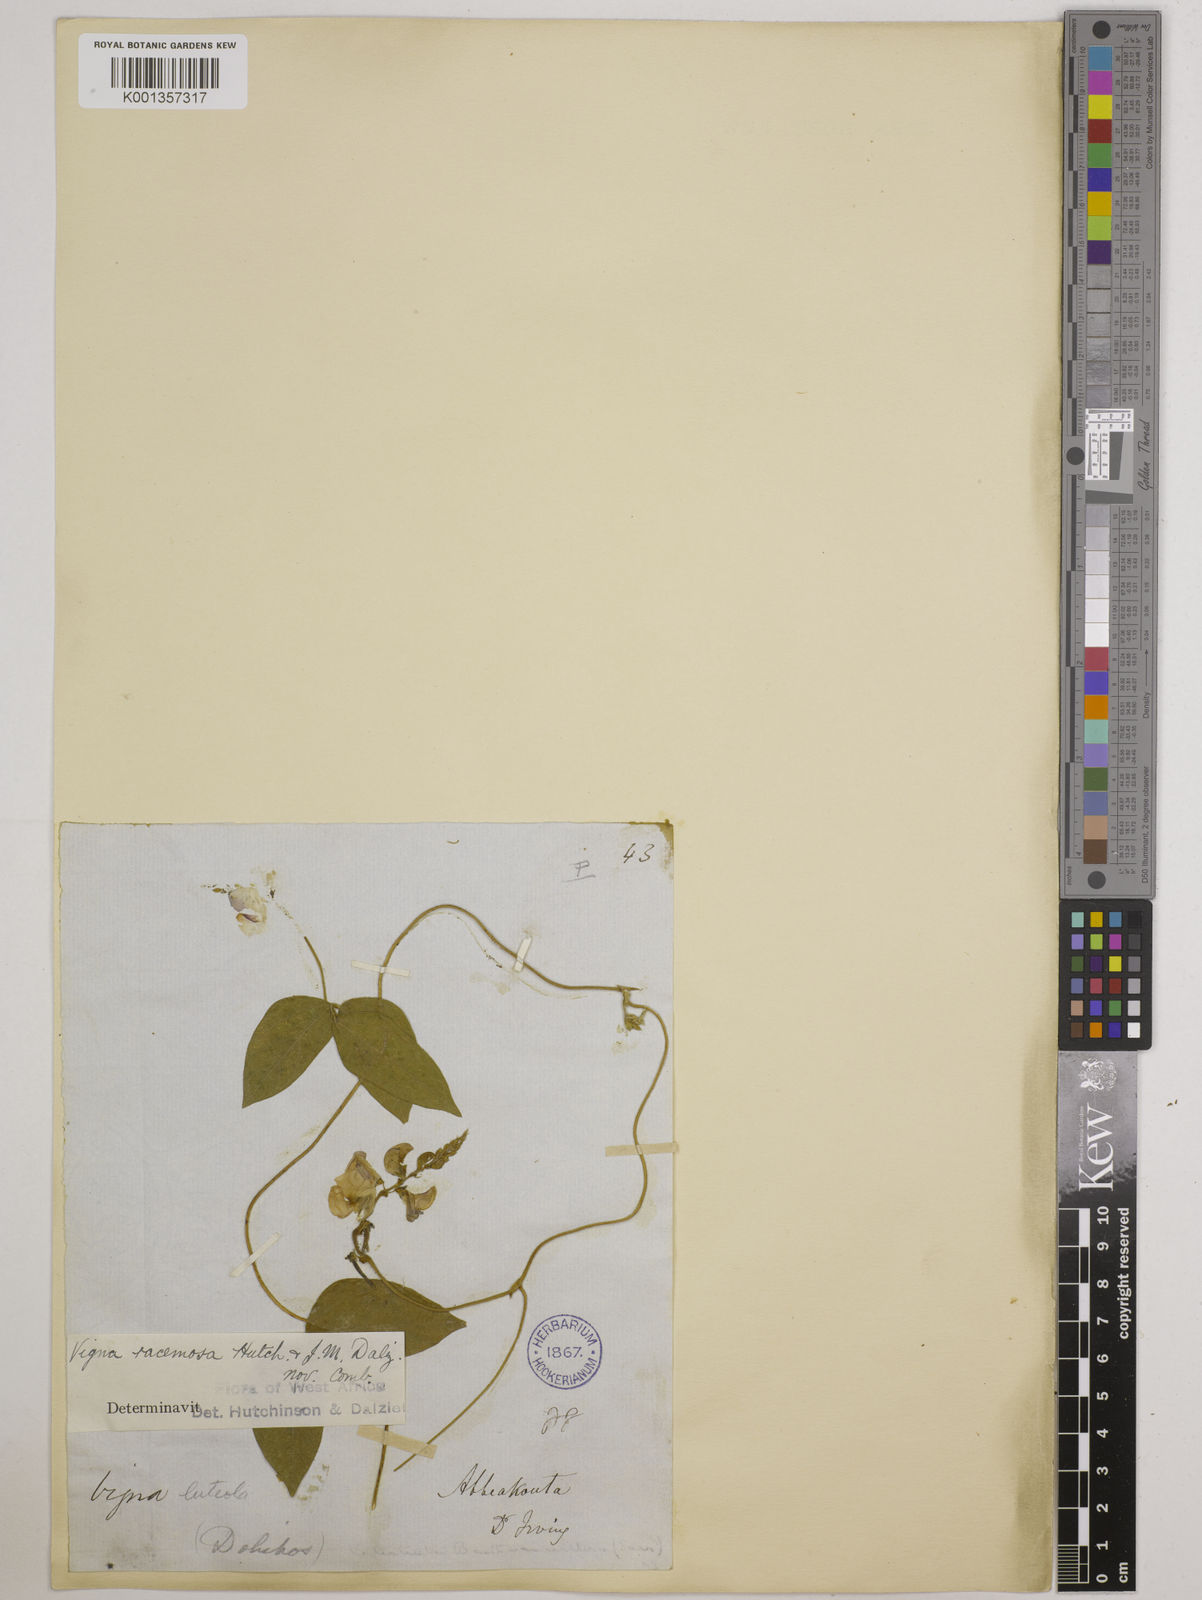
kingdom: Plantae
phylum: Tracheophyta
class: Magnoliopsida
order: Fabales
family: Fabaceae
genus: Vigna
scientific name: Vigna racemosa
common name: Beans not eaten
